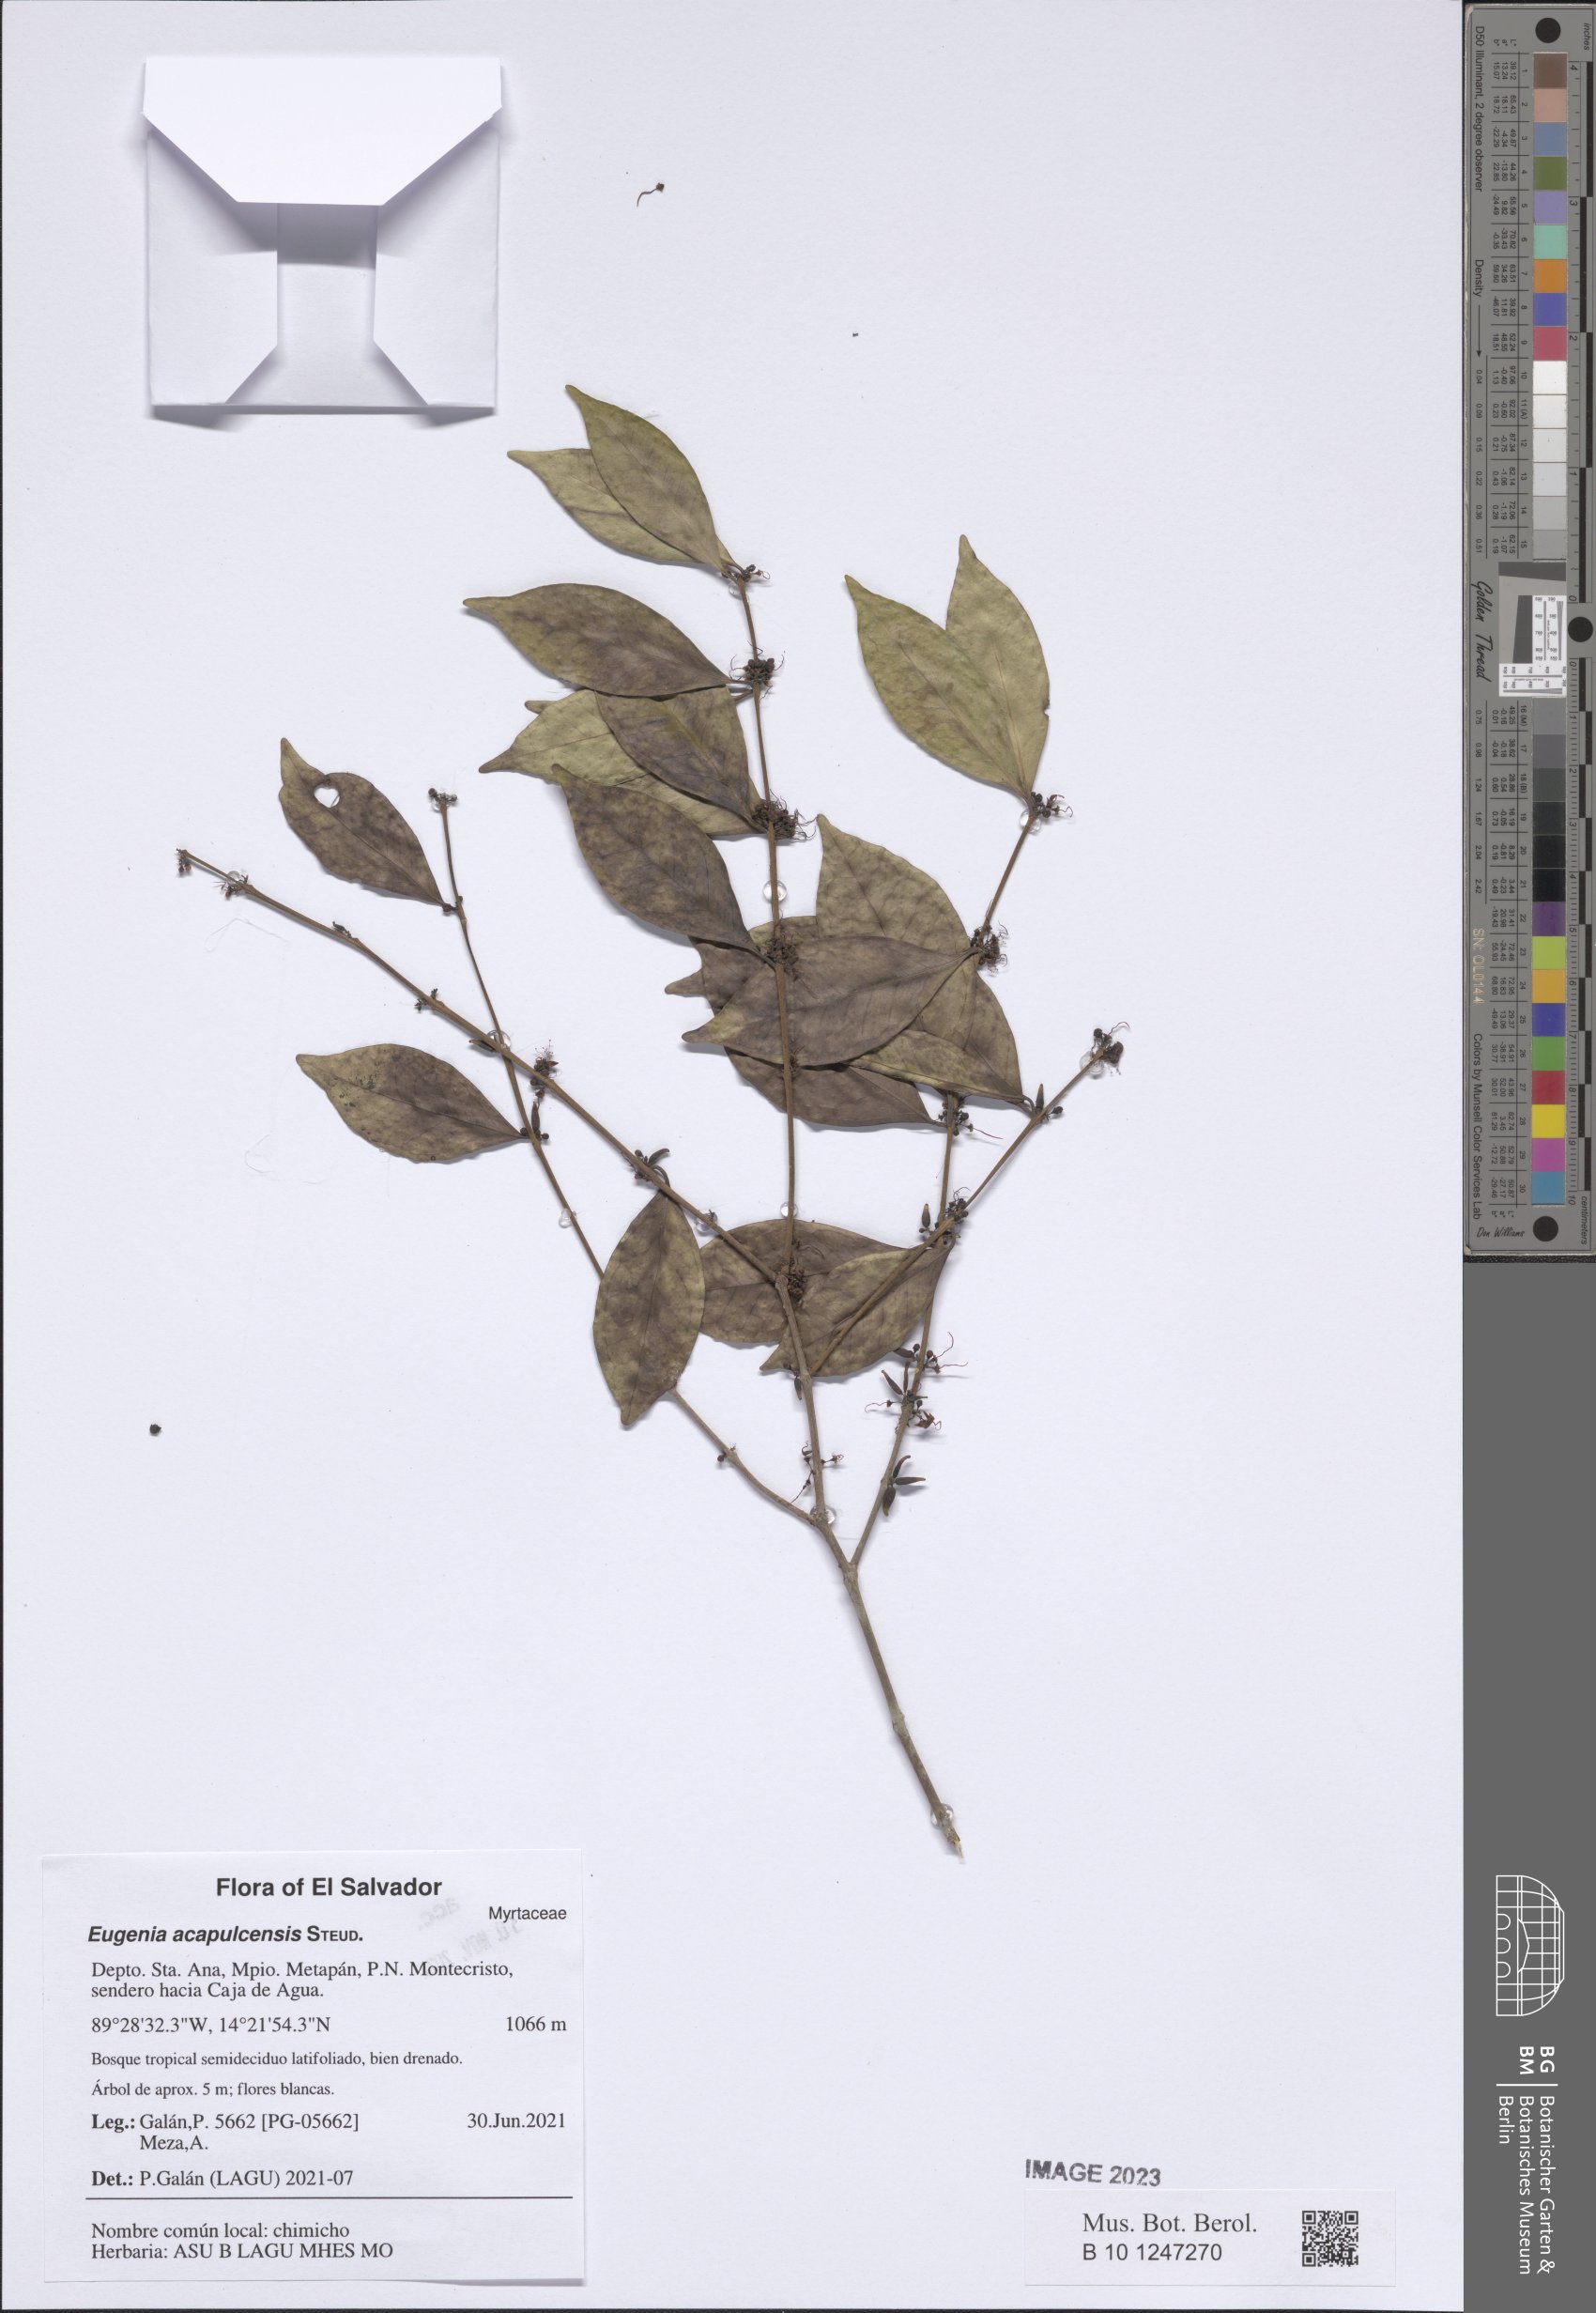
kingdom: Plantae
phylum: Tracheophyta
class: Magnoliopsida
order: Myrtales
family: Myrtaceae
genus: Eugenia
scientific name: Eugenia acapulcensis
